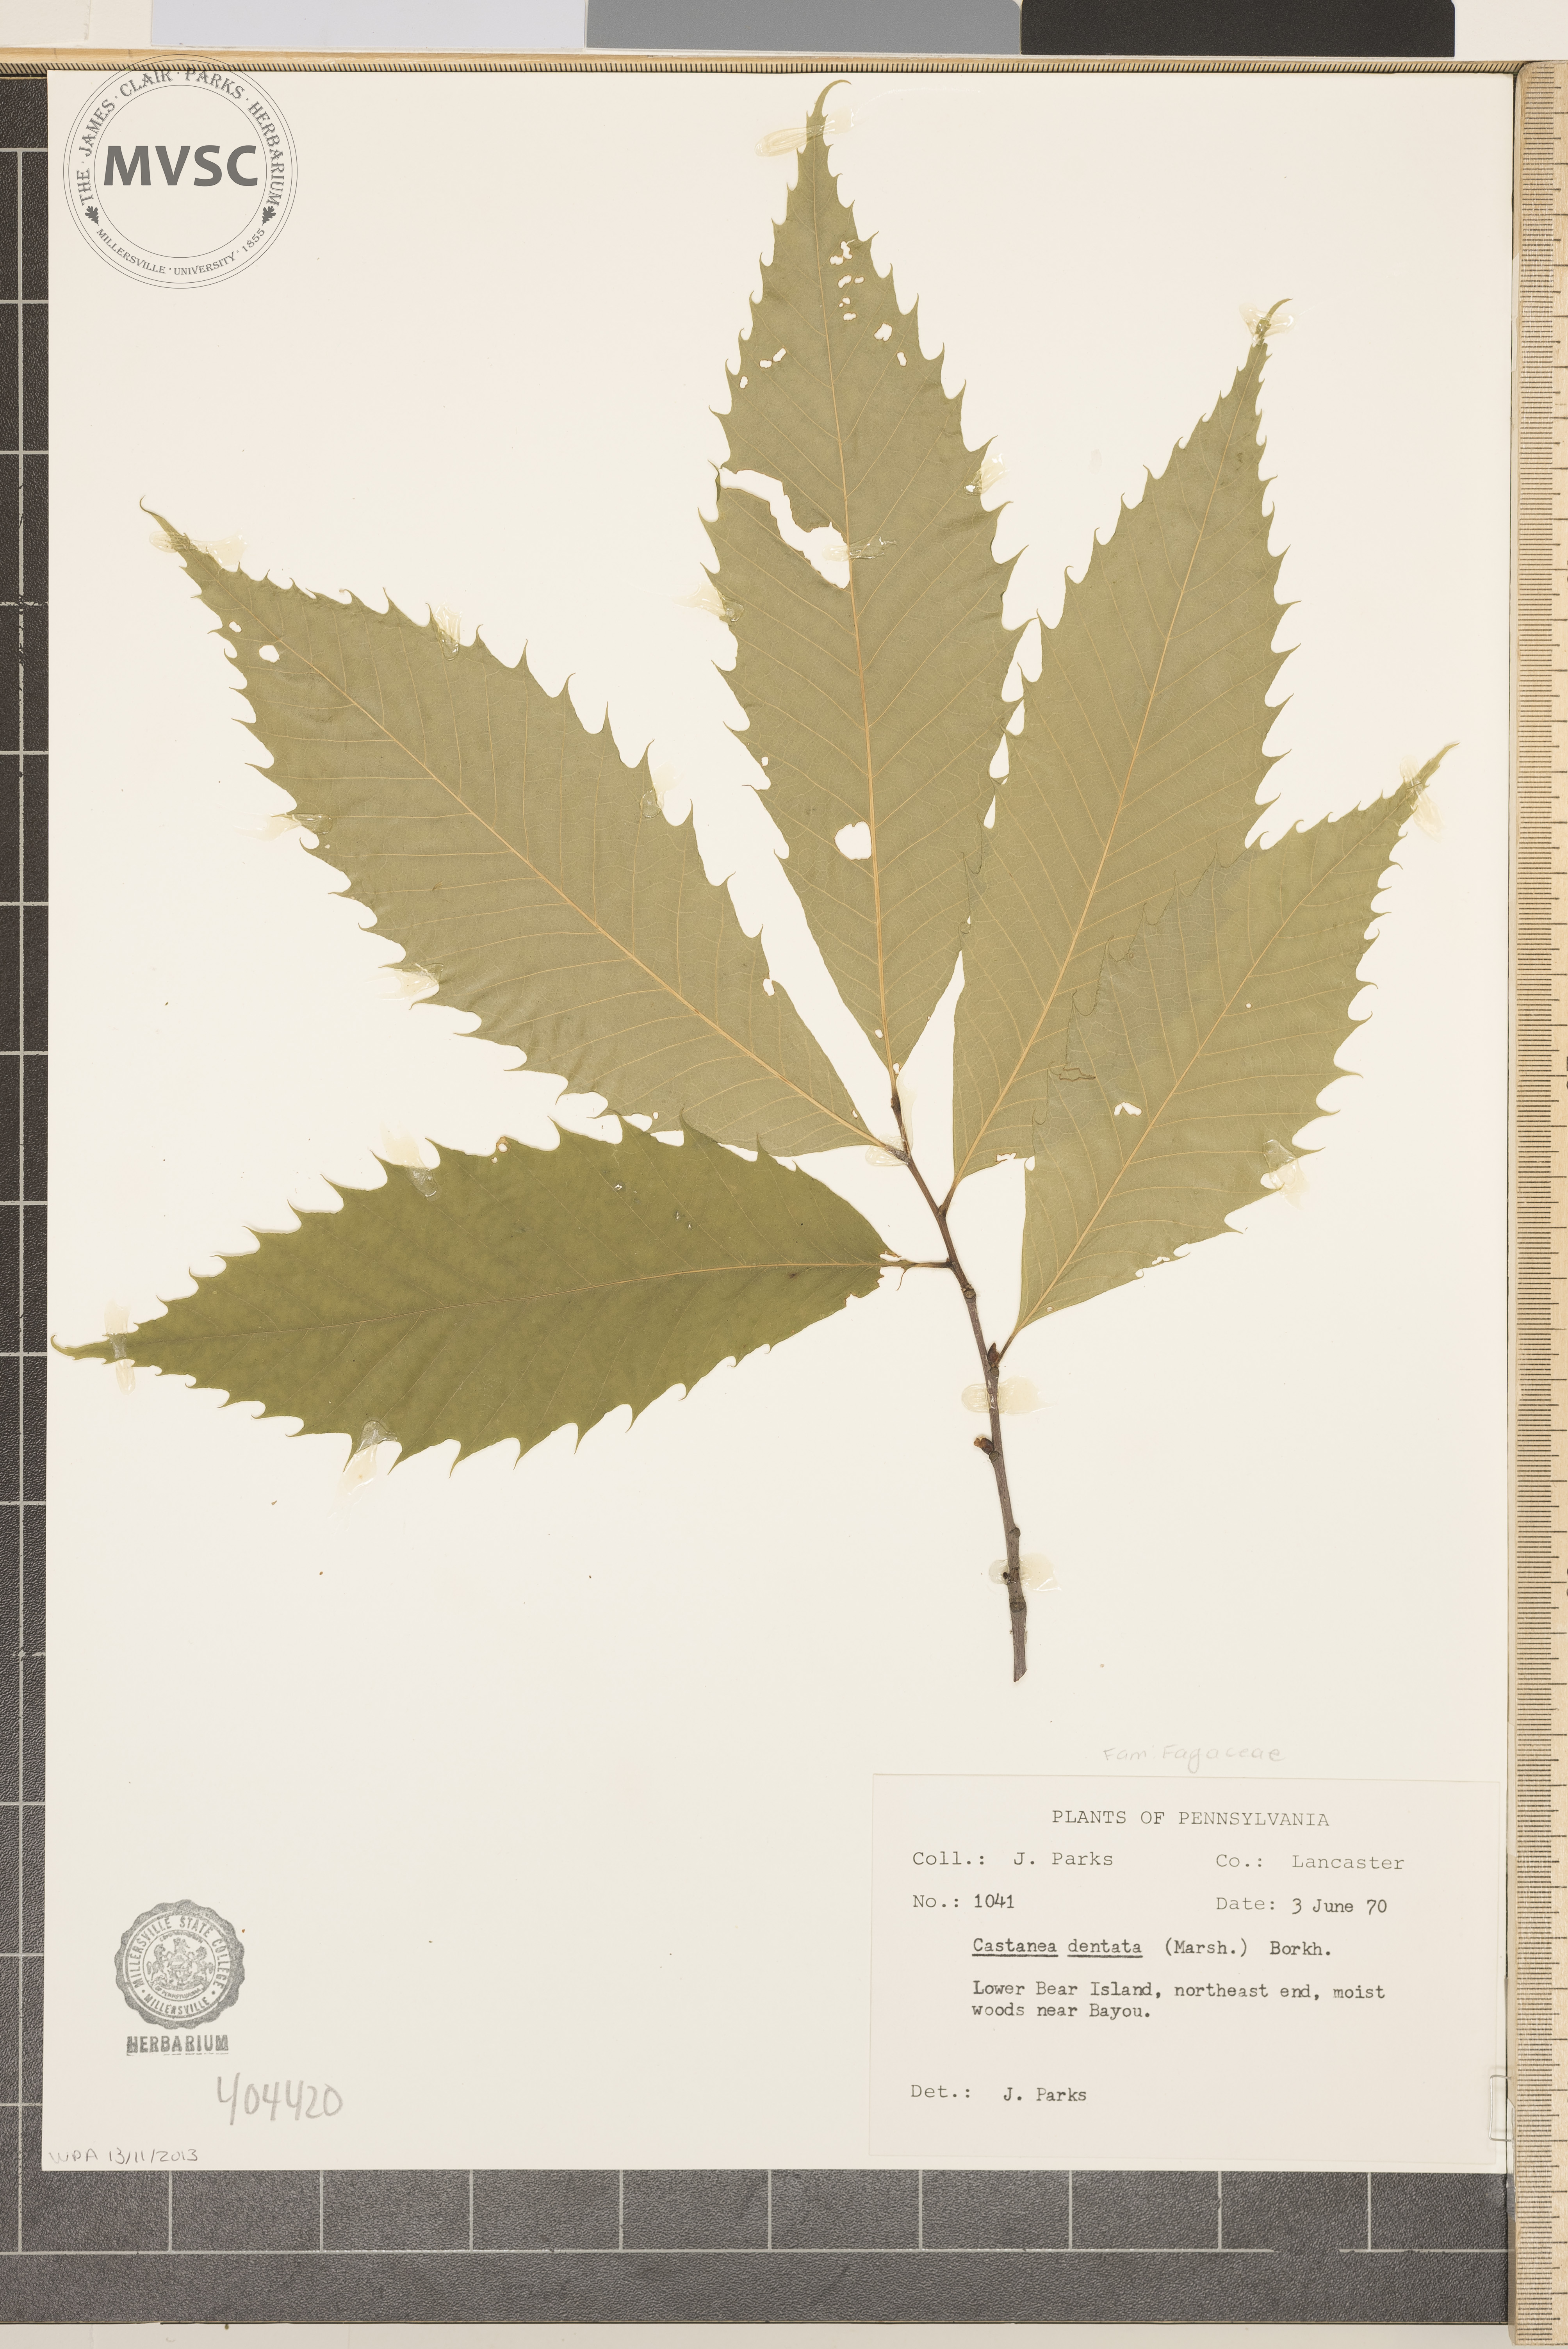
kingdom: Plantae
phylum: Tracheophyta
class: Magnoliopsida
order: Fagales
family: Fagaceae
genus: Castanea
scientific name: Castanea dentata
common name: American chestnut
